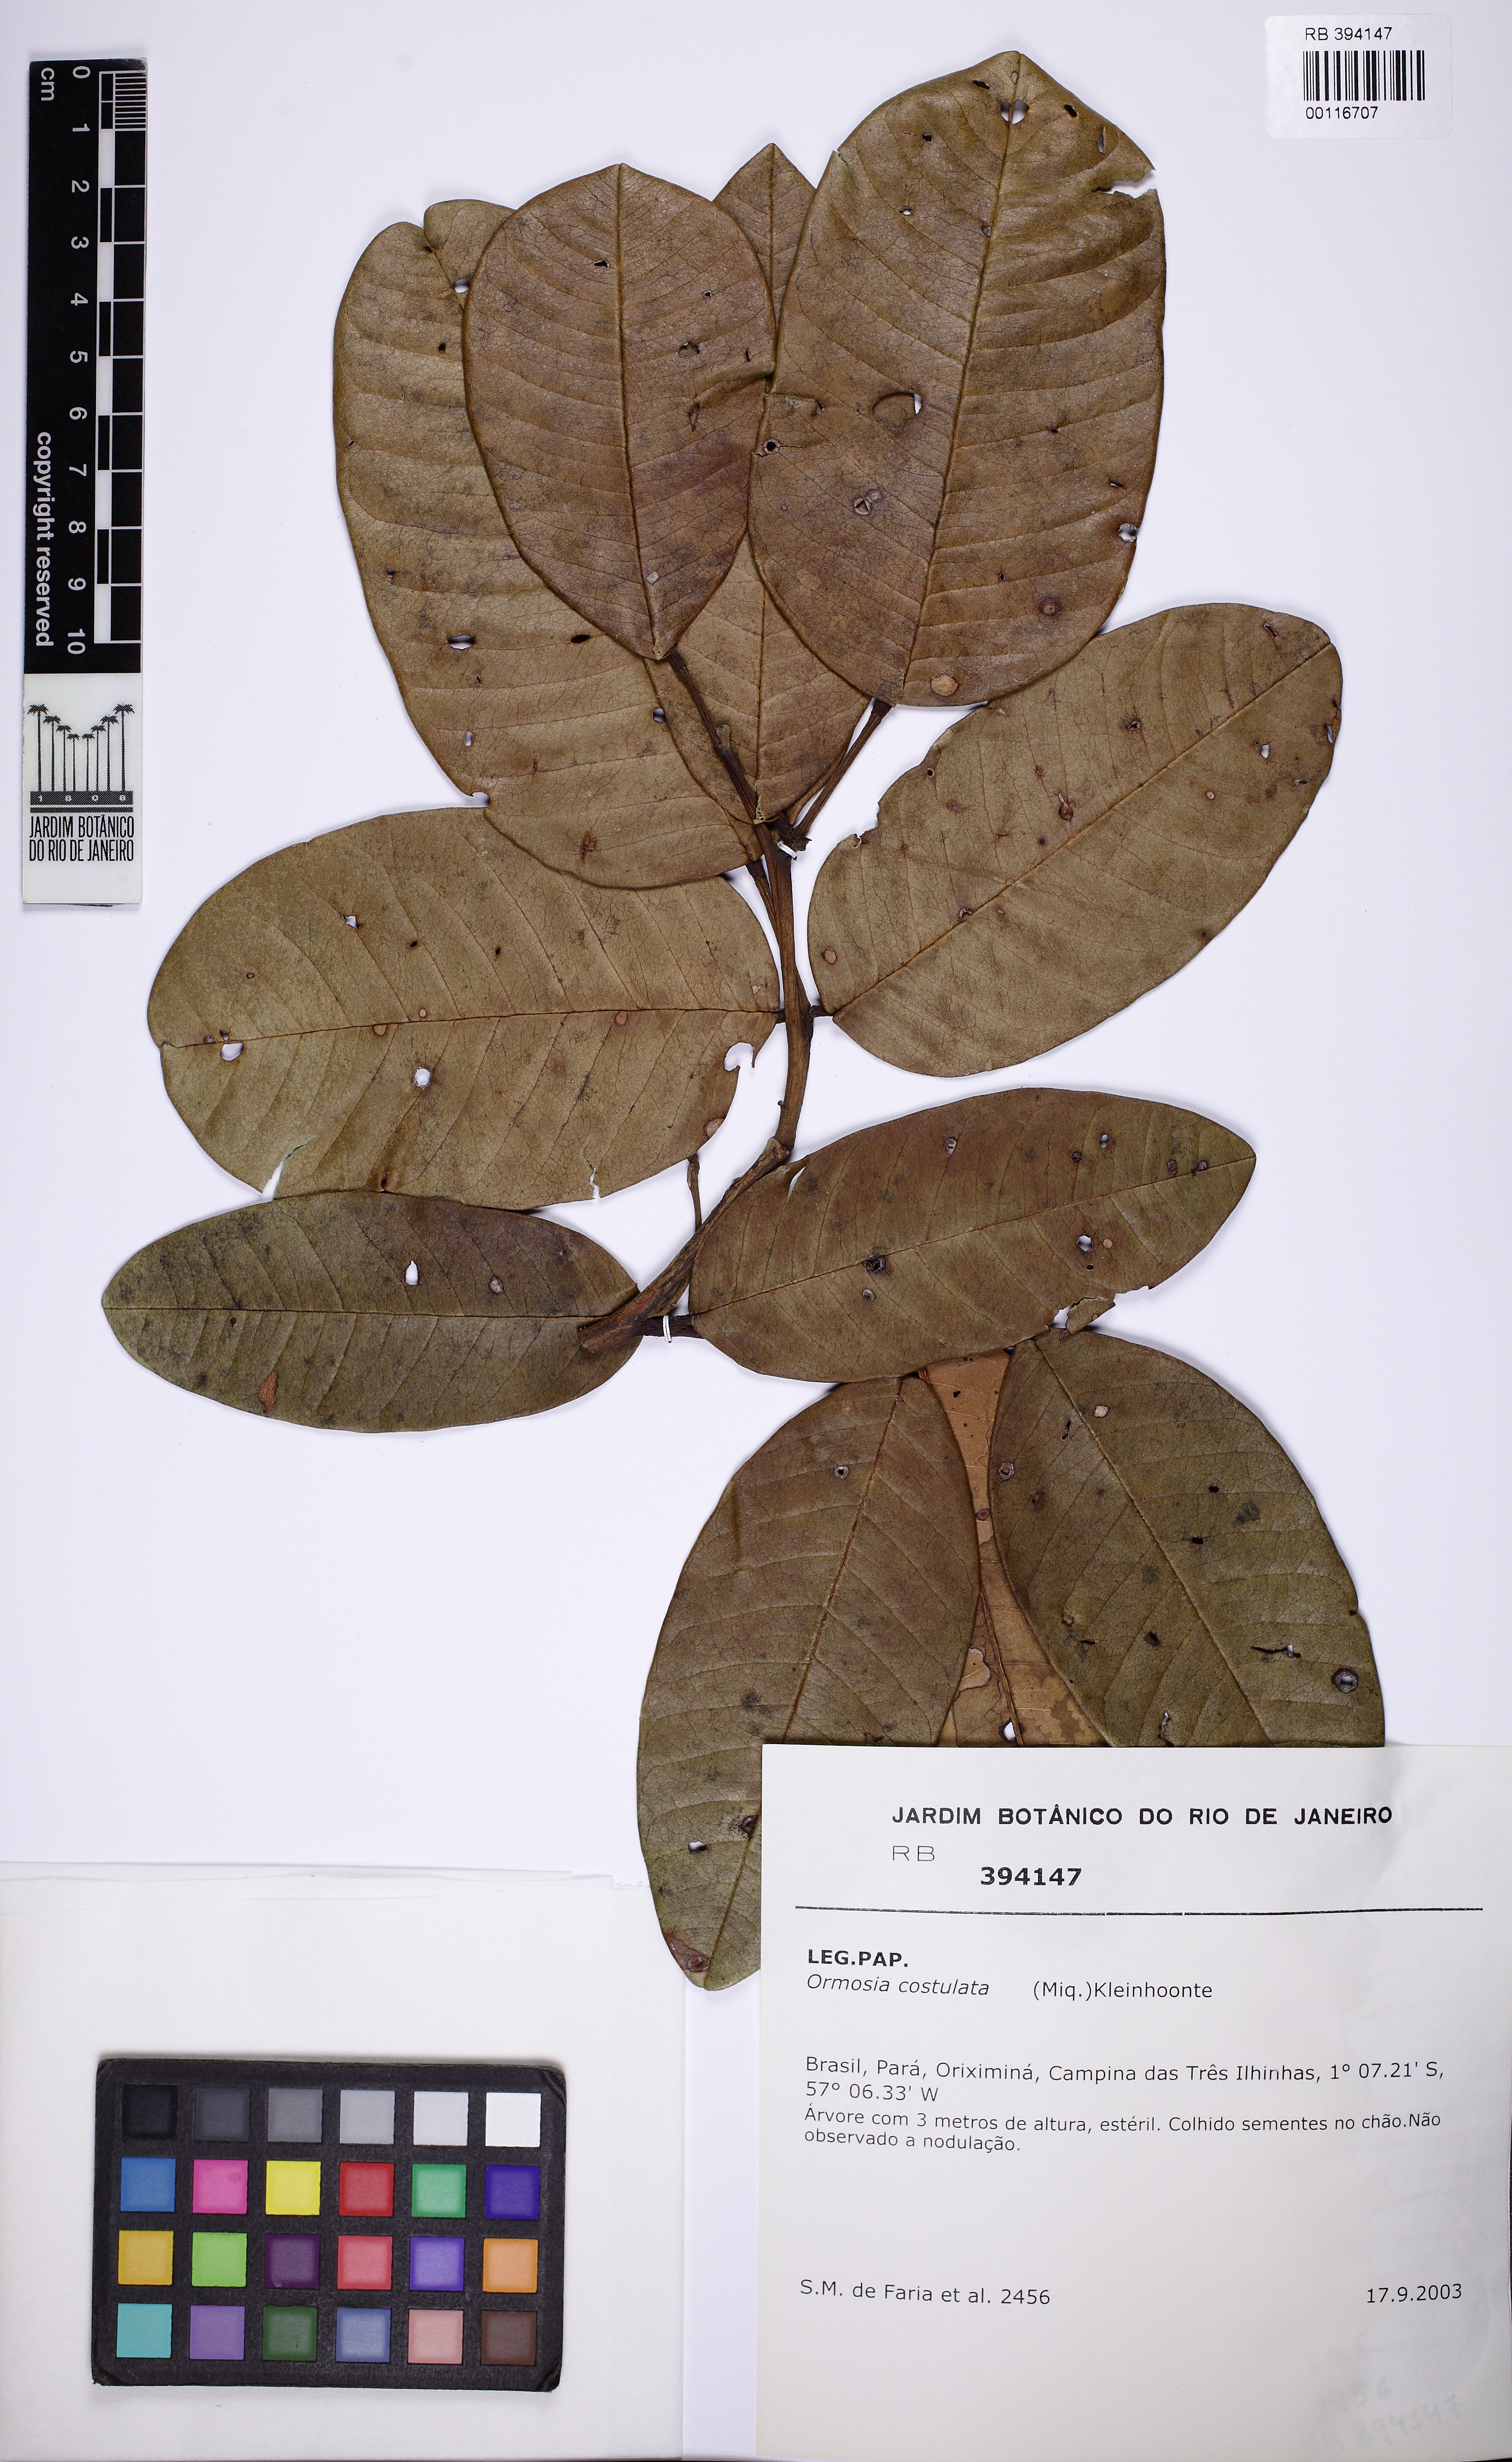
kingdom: Plantae
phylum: Tracheophyta
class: Magnoliopsida
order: Fabales
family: Fabaceae
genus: Ormosia
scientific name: Ormosia costulata
